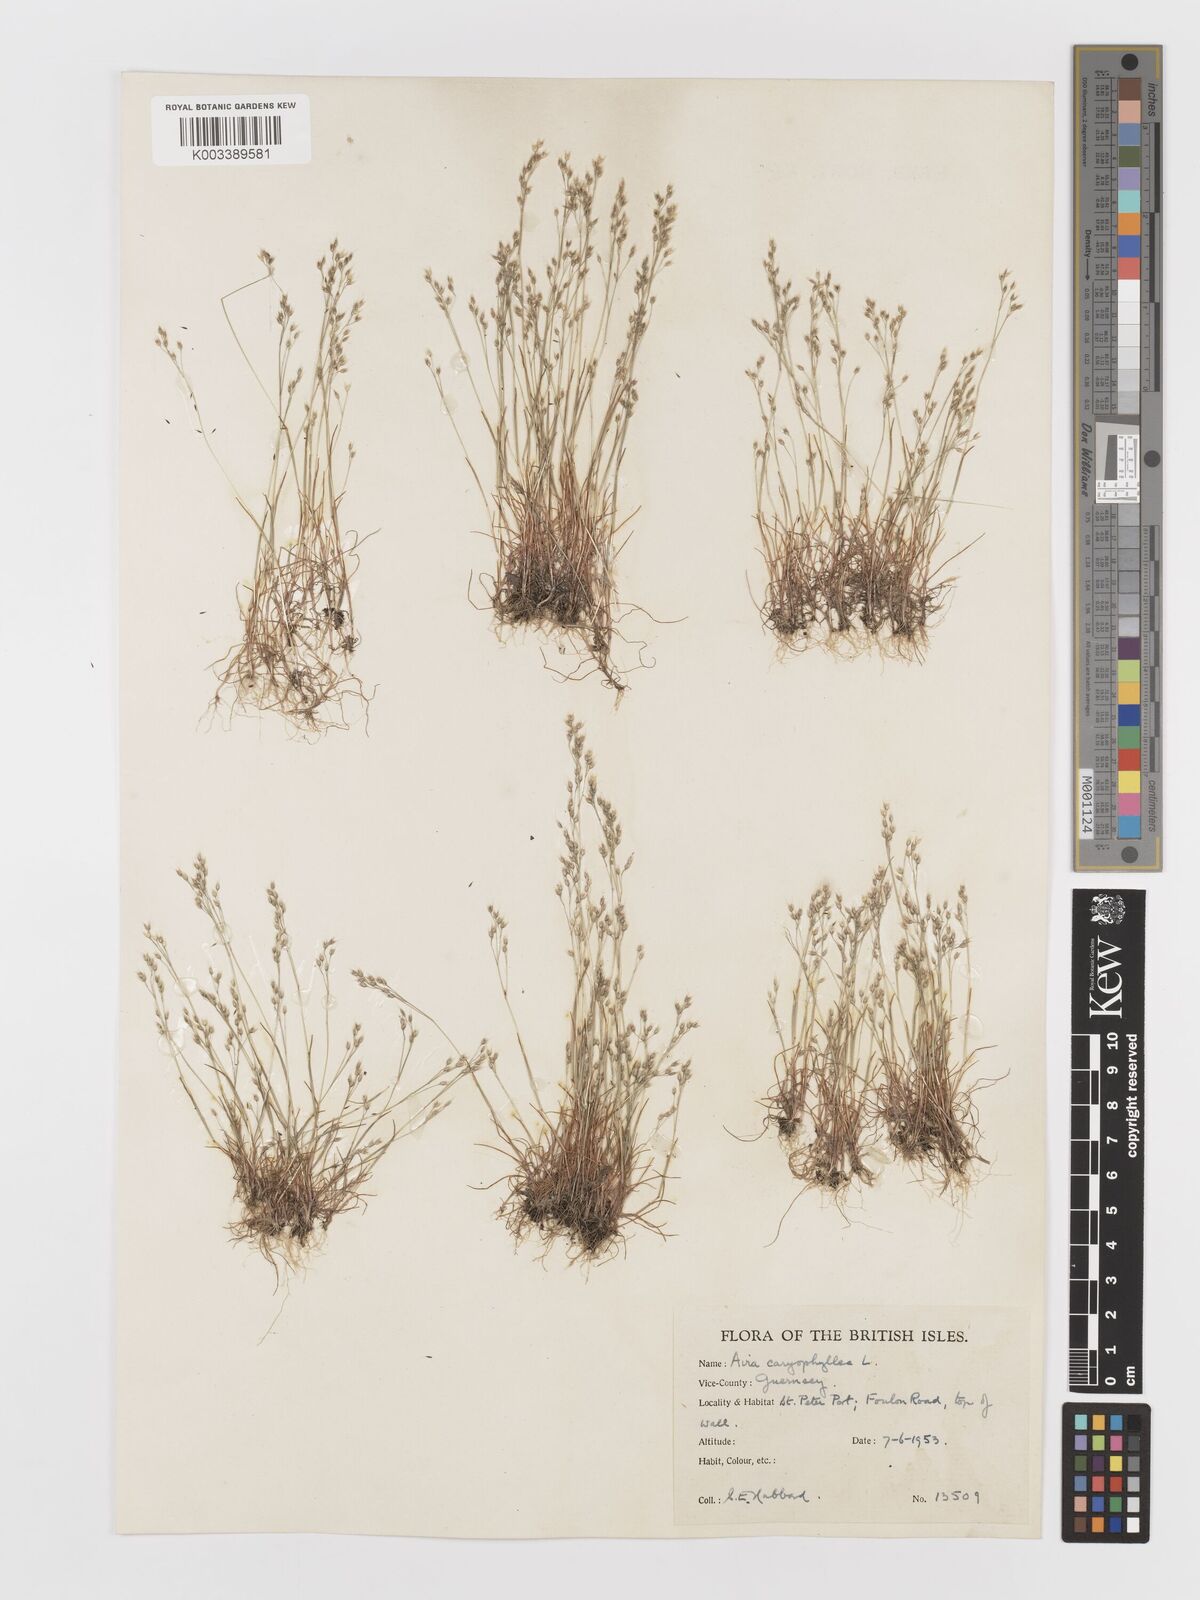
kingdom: Plantae
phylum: Tracheophyta
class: Liliopsida
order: Poales
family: Poaceae
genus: Aira
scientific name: Aira caryophyllea
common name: Silver hairgrass
